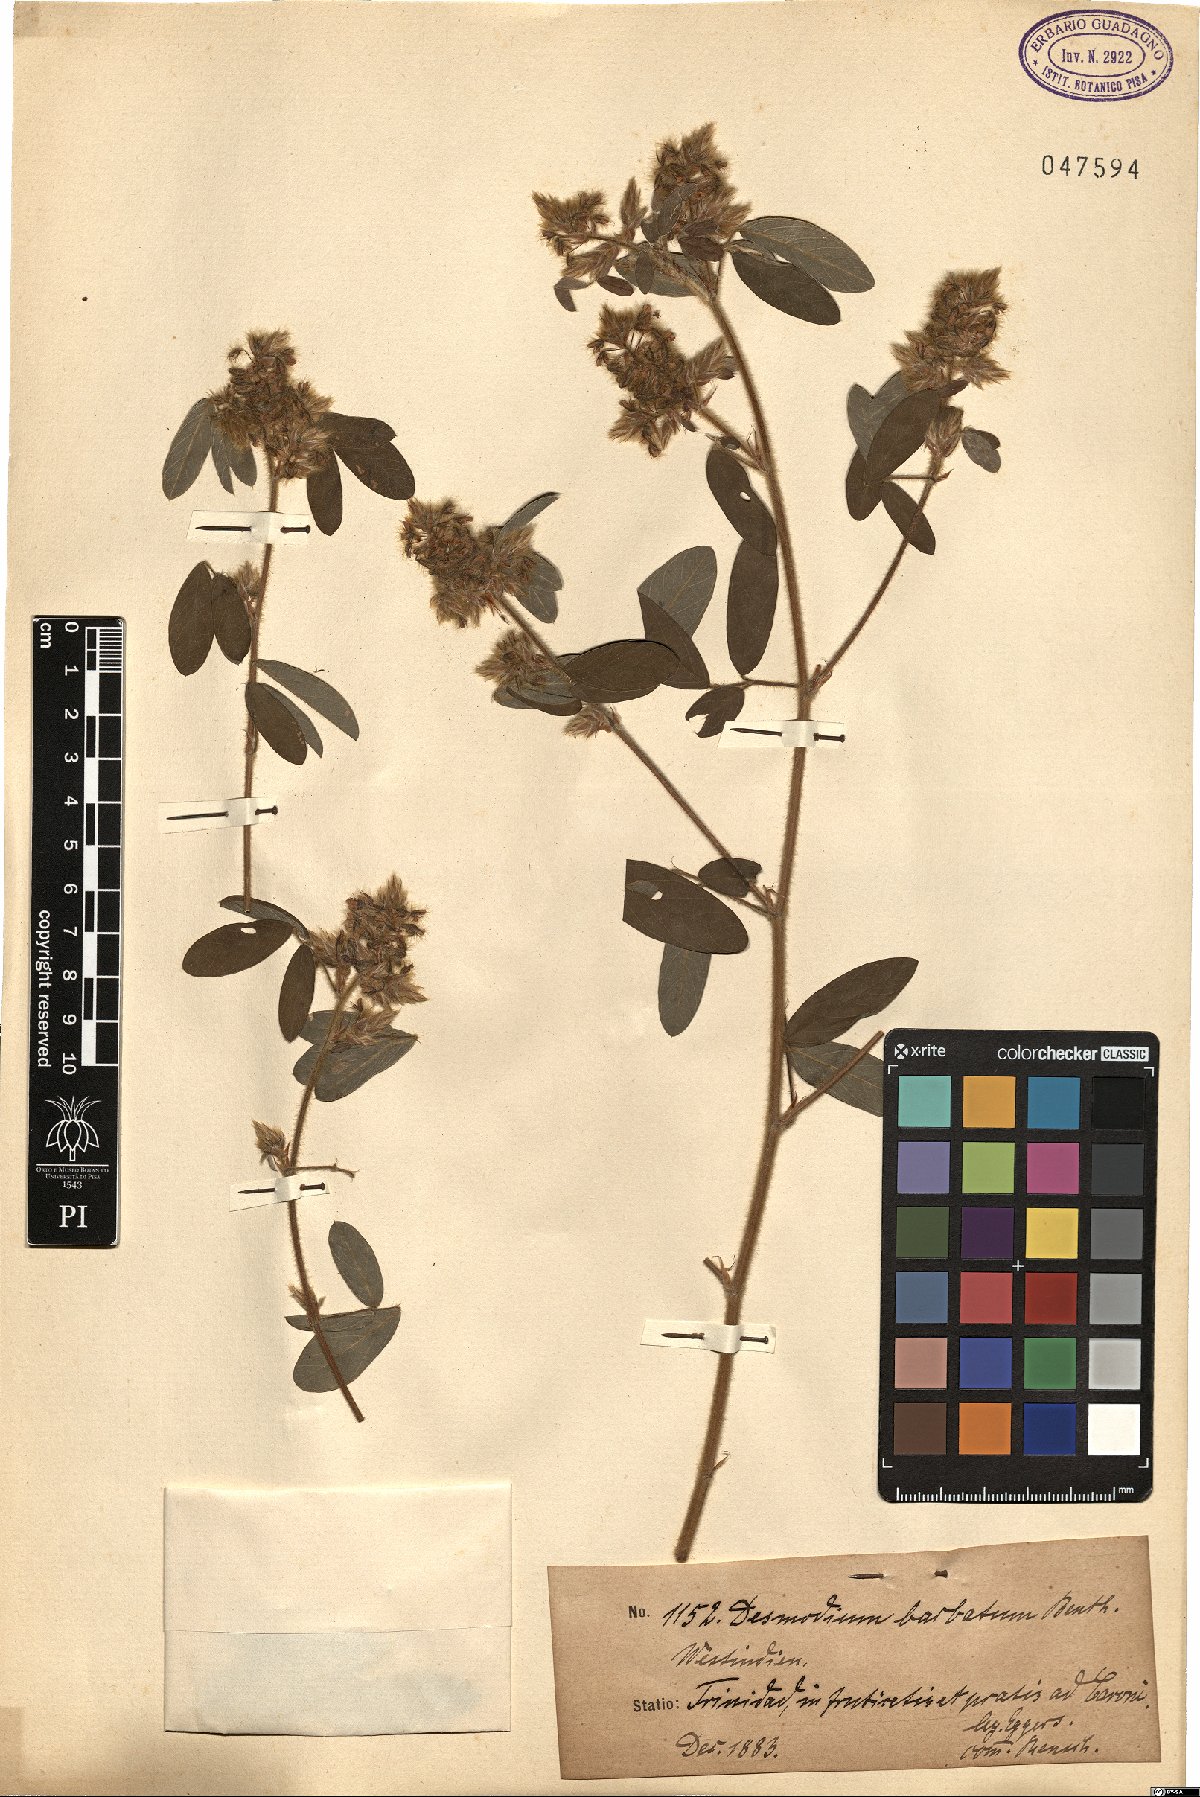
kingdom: Plantae
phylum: Tracheophyta
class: Magnoliopsida
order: Fabales
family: Fabaceae
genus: Grona
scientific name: Grona barbata
